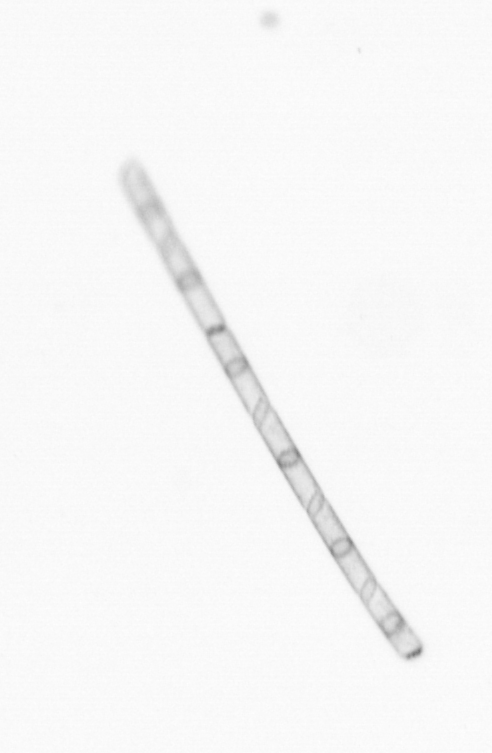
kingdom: Chromista
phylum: Ochrophyta
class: Bacillariophyceae
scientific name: Bacillariophyceae
